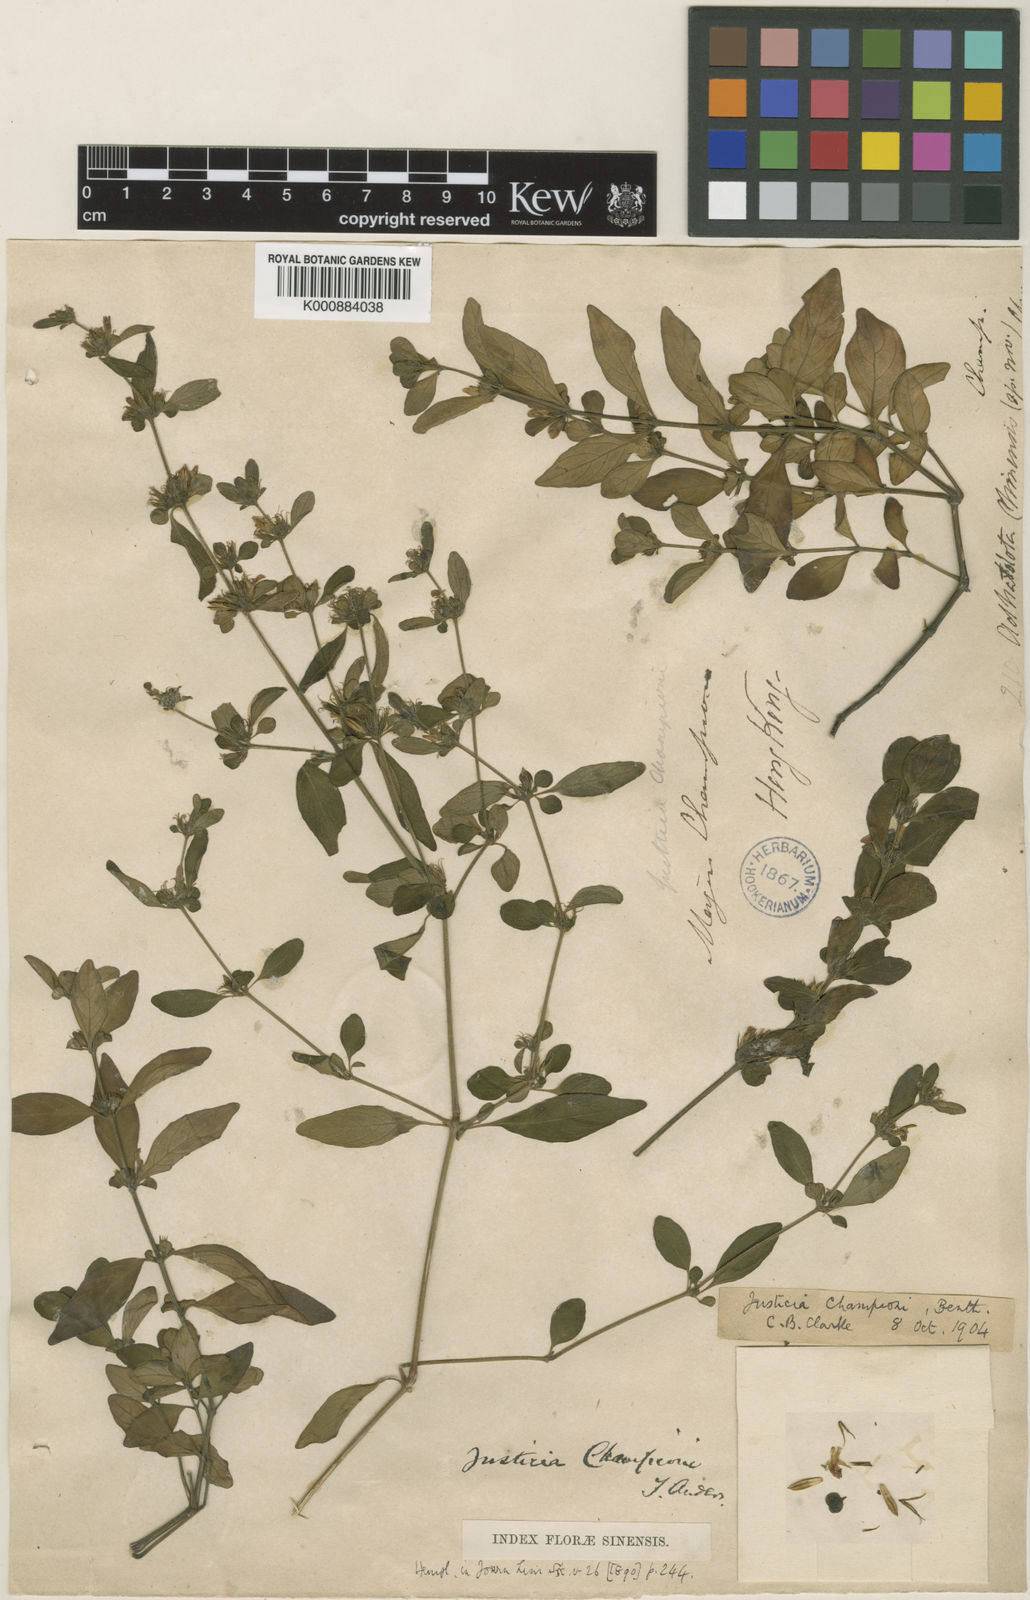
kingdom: Plantae
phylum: Tracheophyta
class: Magnoliopsida
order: Lamiales
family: Acanthaceae
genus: Justicia
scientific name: Justicia championii
